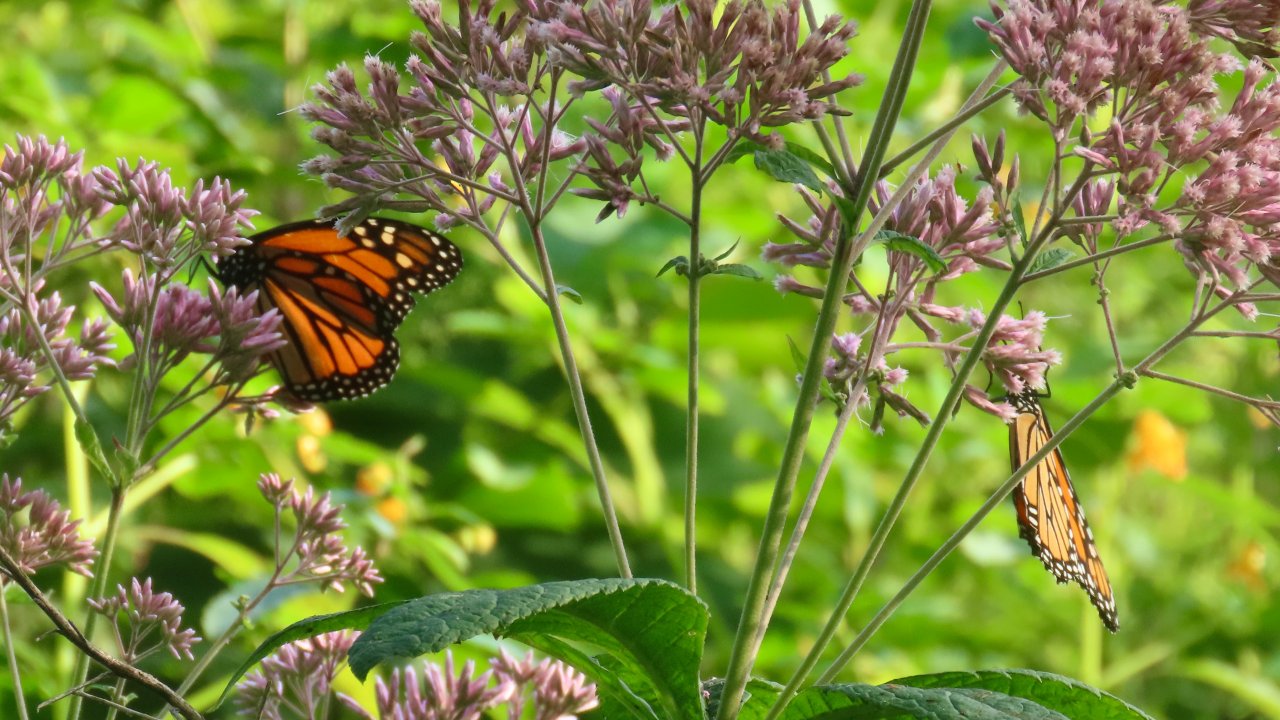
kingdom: Animalia
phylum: Arthropoda
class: Insecta
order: Lepidoptera
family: Nymphalidae
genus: Danaus
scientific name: Danaus plexippus
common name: Monarch
